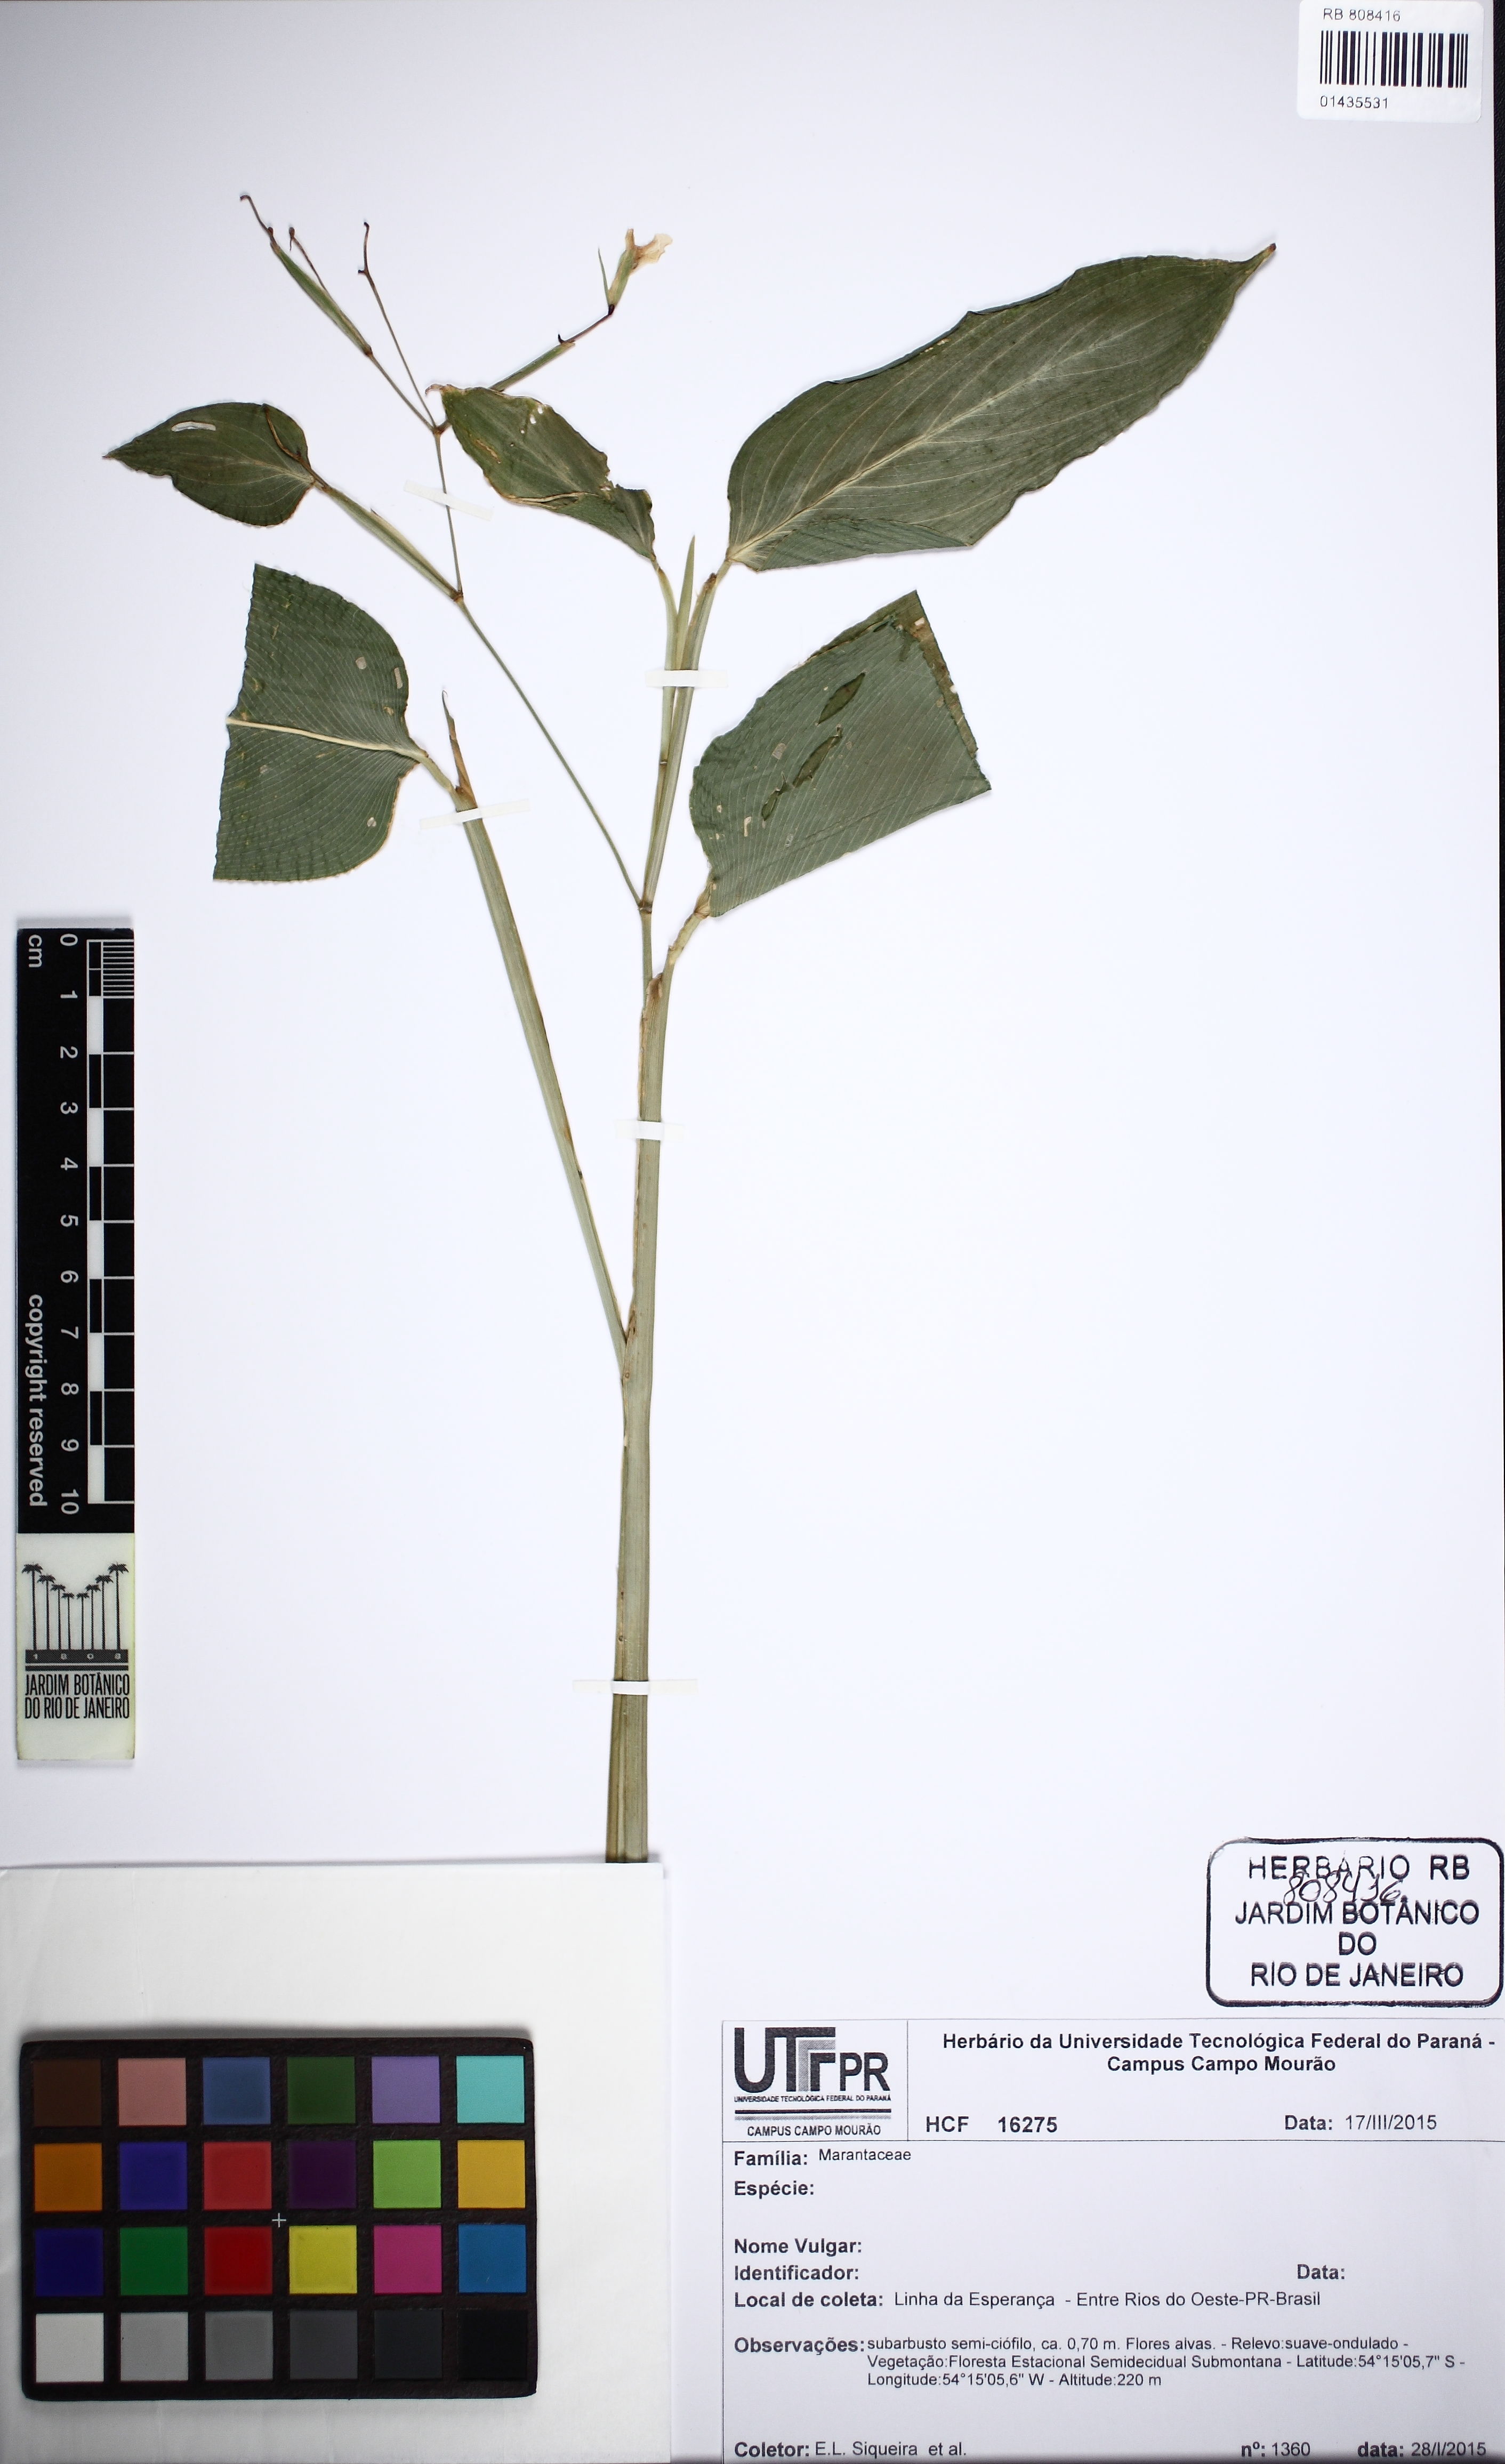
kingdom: Plantae
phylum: Tracheophyta
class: Liliopsida
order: Zingiberales
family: Marantaceae
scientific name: Marantaceae
